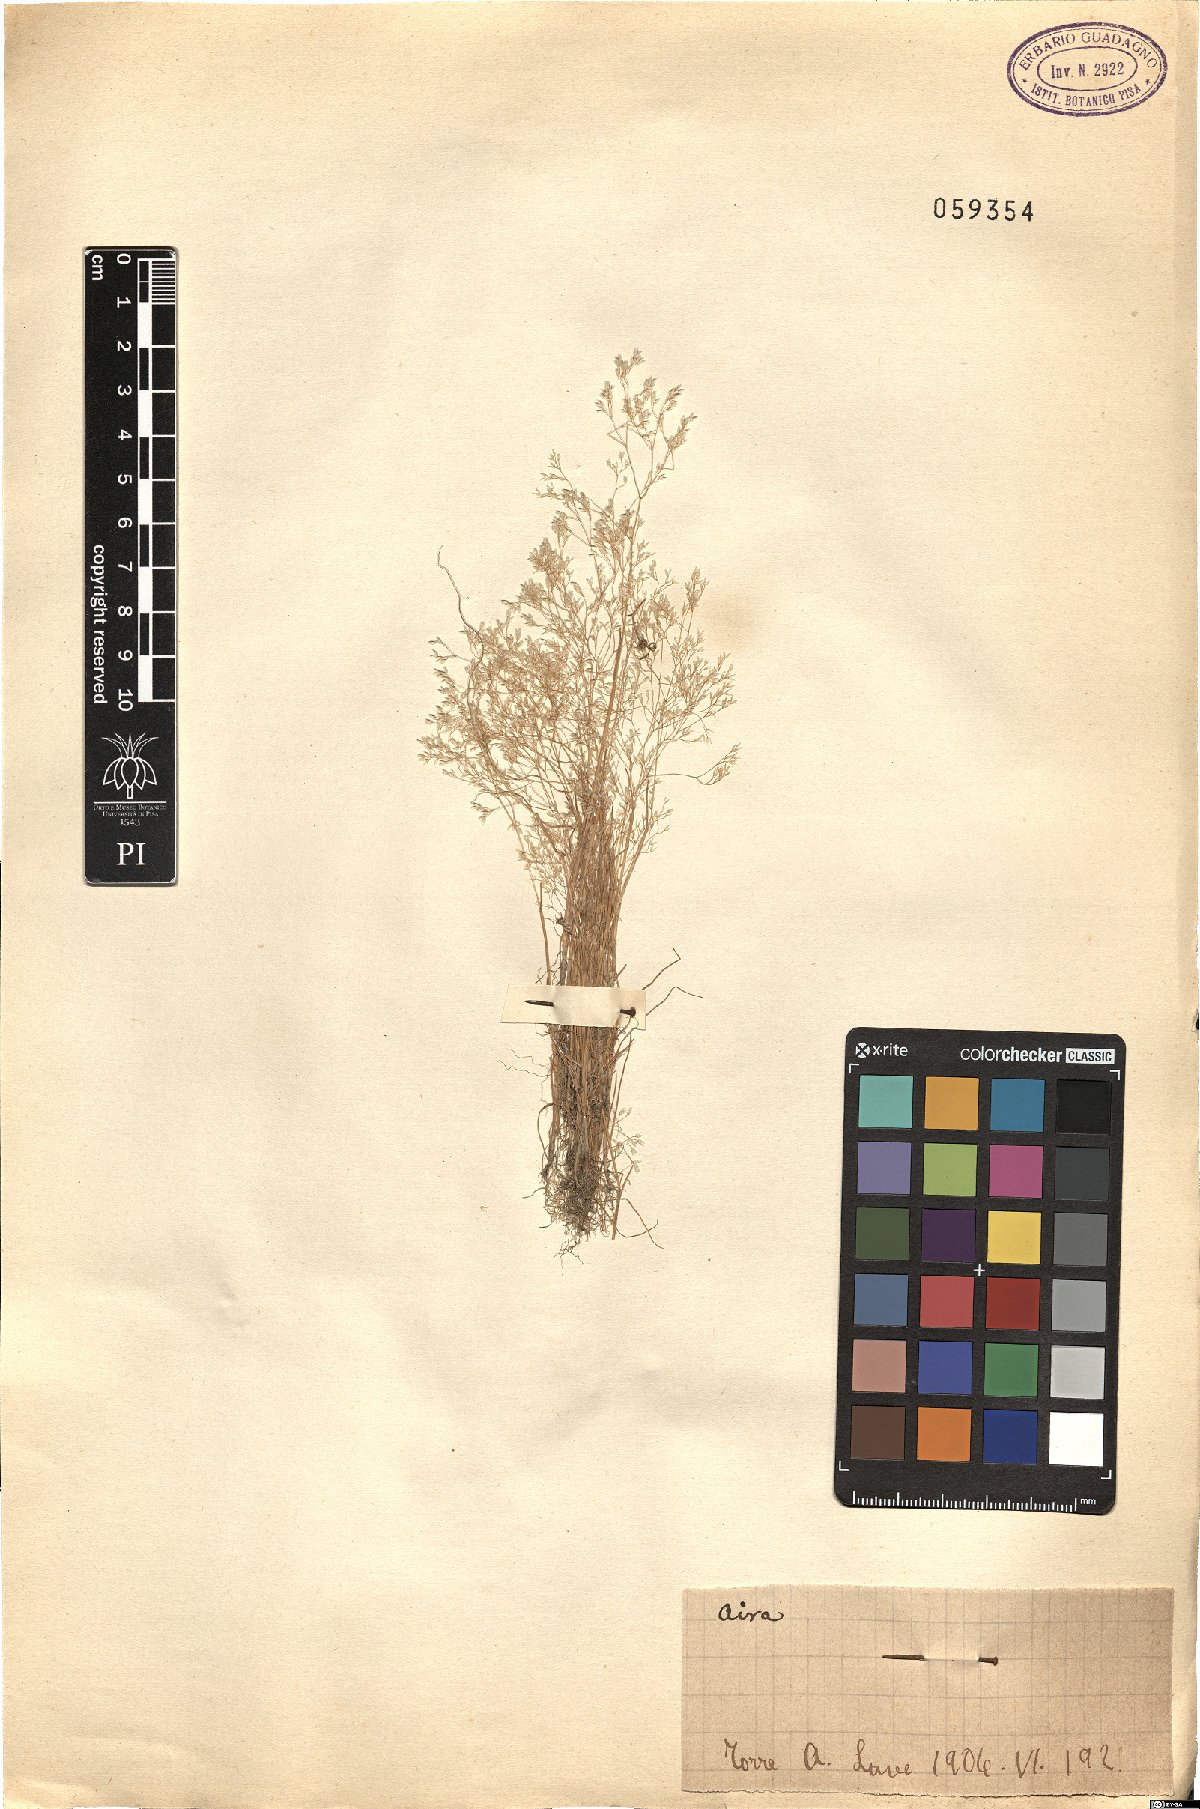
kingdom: Plantae
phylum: Tracheophyta
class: Liliopsida
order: Poales
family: Poaceae
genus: Aira
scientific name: Aira
